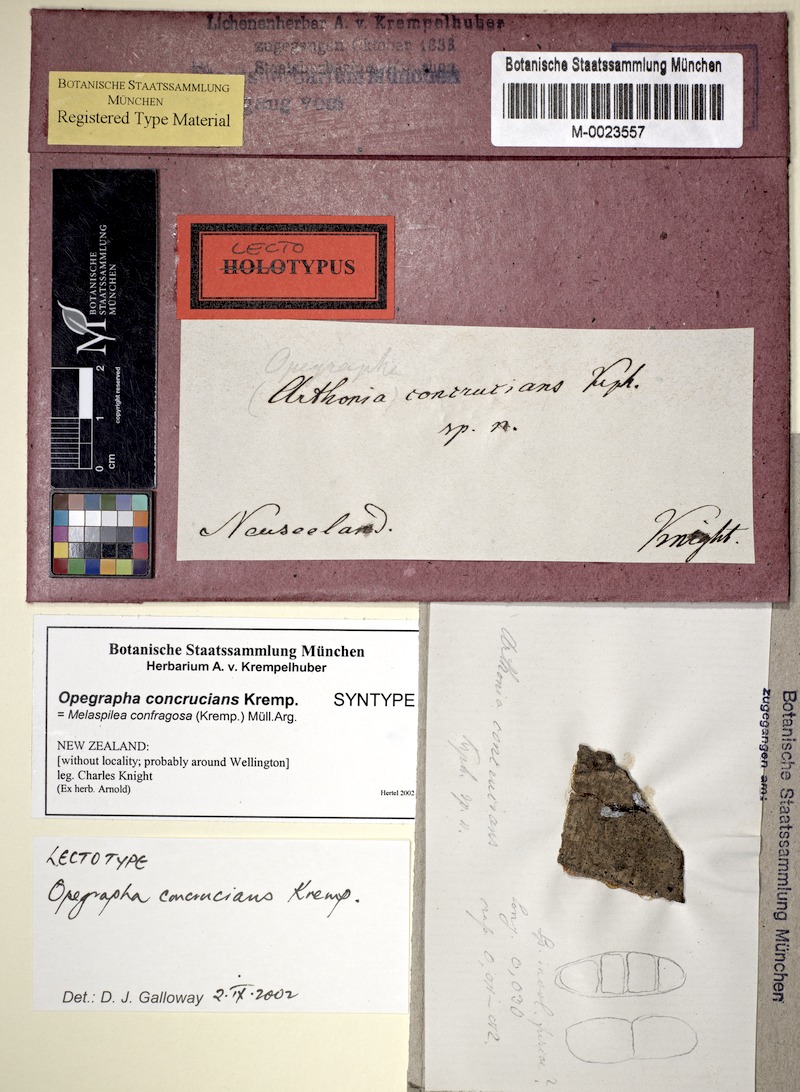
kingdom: Fungi
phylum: Ascomycota
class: Arthoniomycetes
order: Arthoniales
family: Opegraphaceae
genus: Opegrapha
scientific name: Opegrapha
